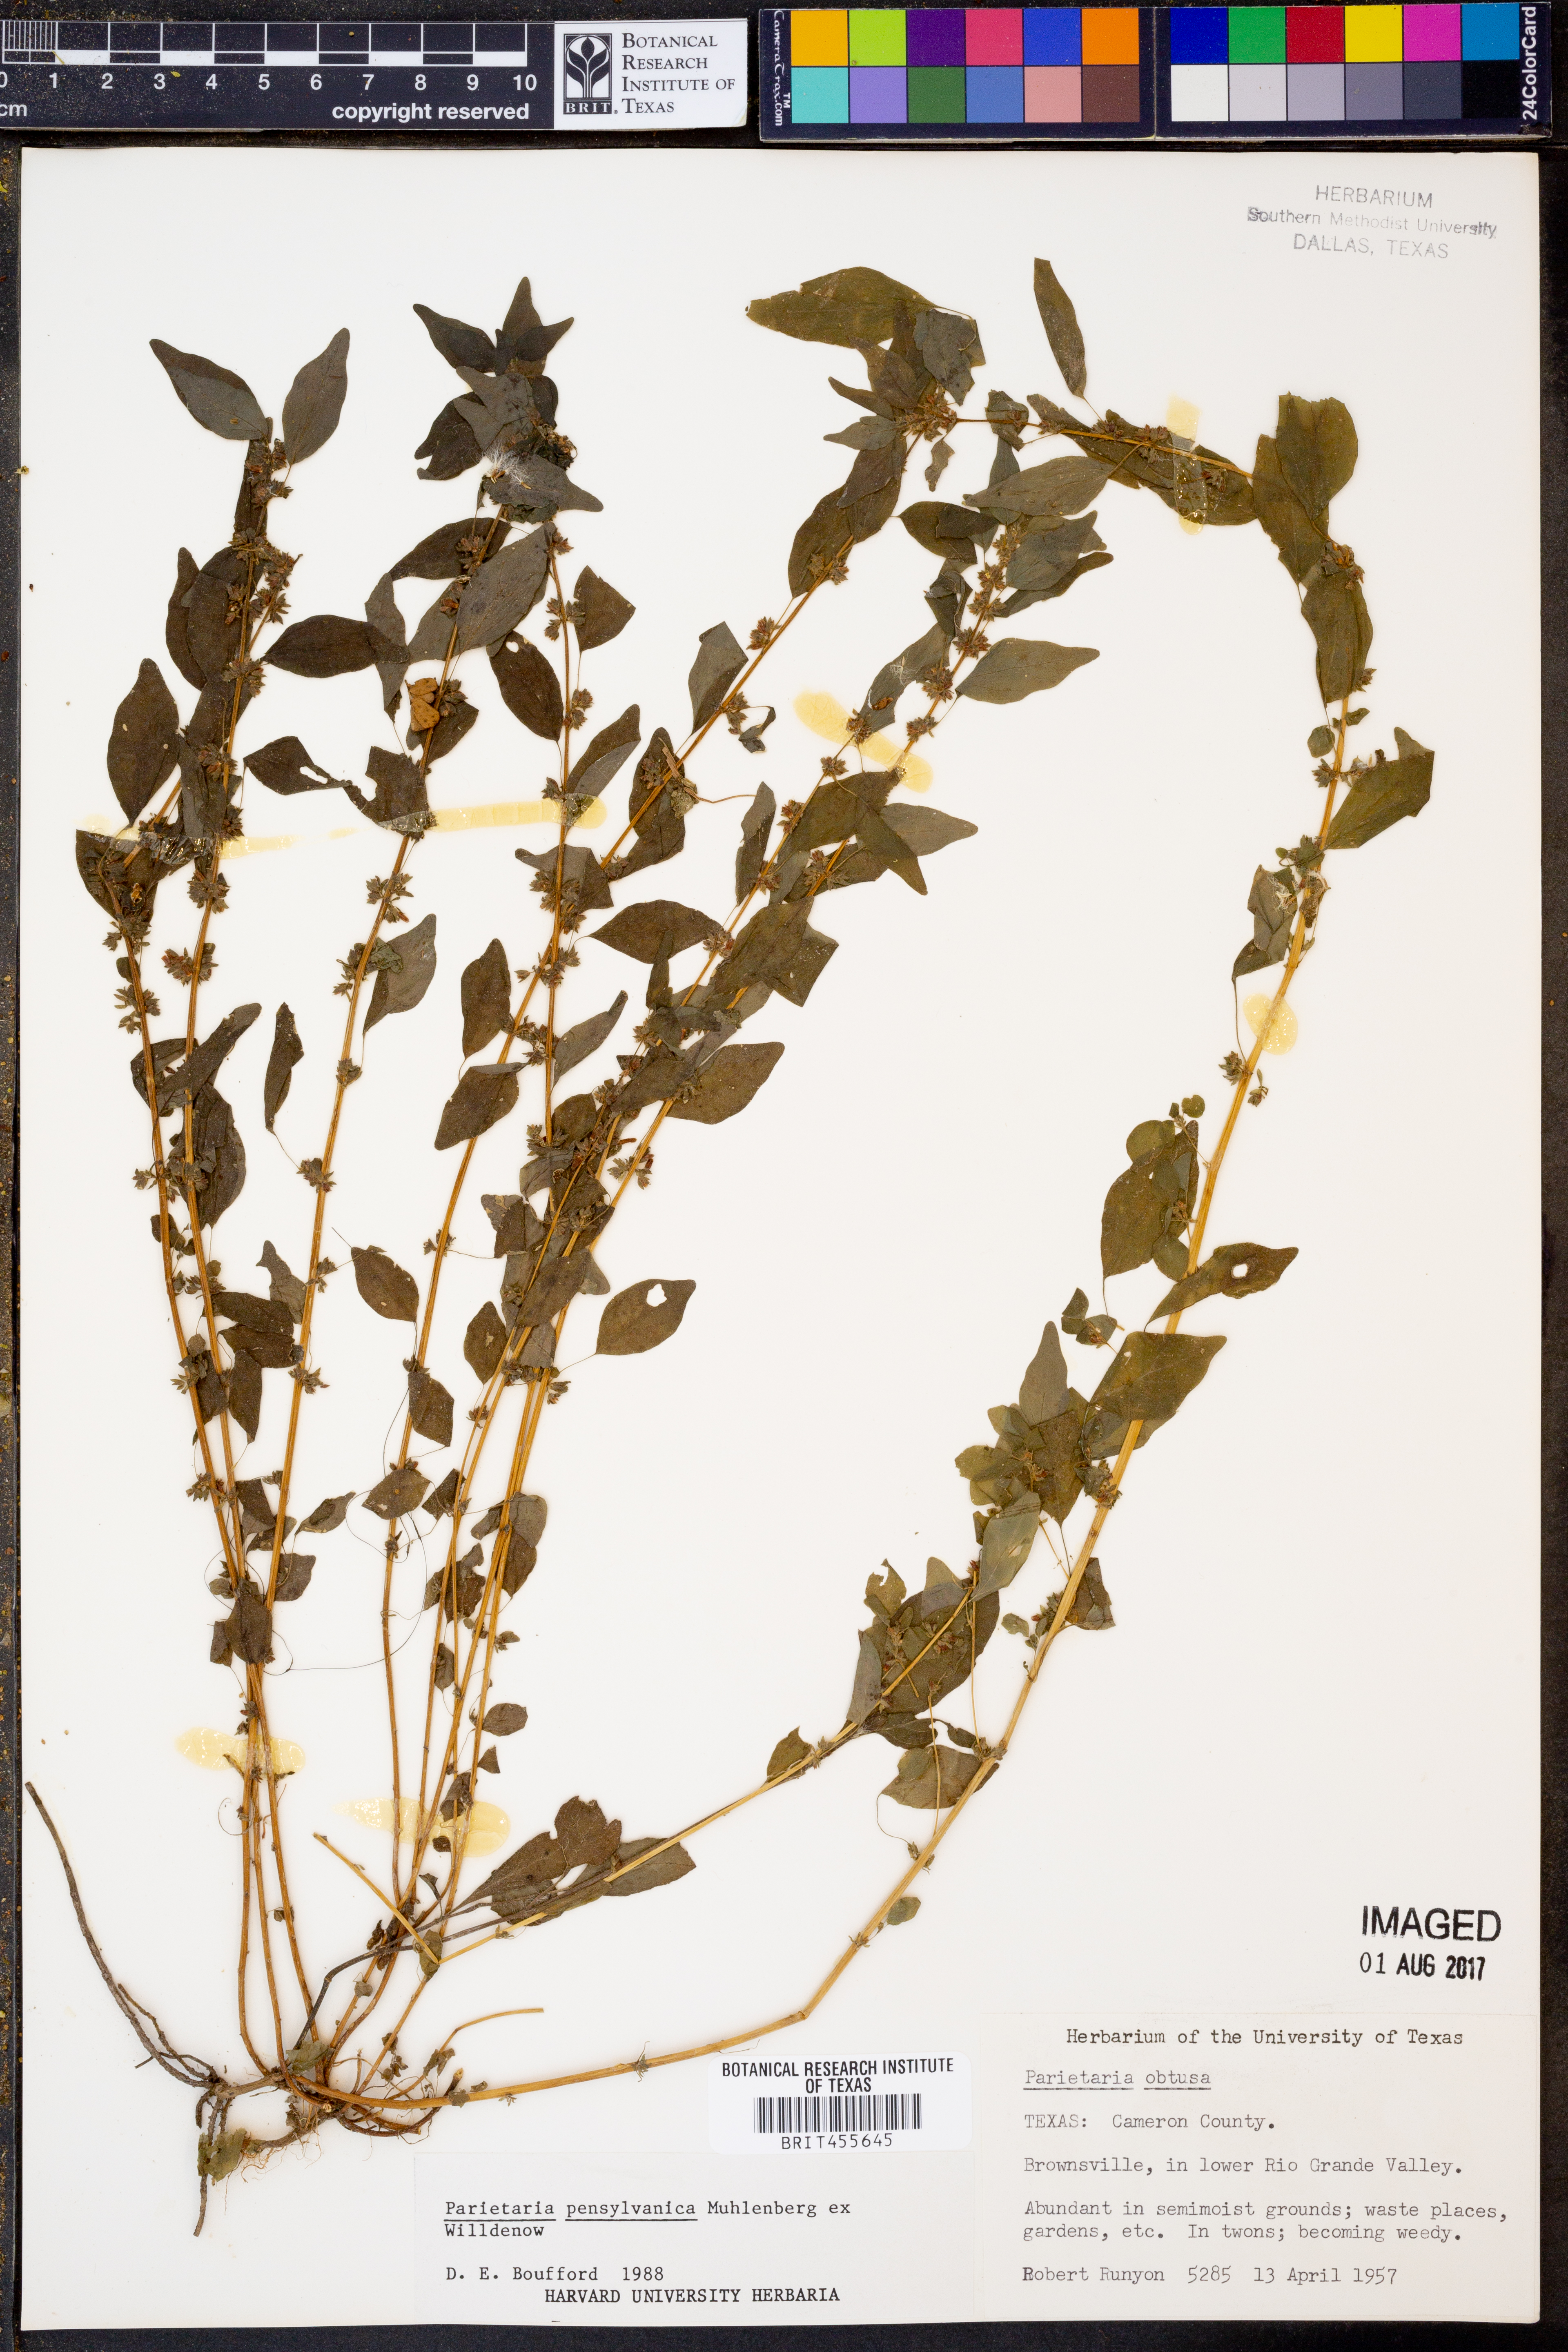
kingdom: Plantae
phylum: Tracheophyta
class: Magnoliopsida
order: Rosales
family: Urticaceae
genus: Parietaria
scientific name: Parietaria pensylvanica
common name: Pennsylvania pellitory
